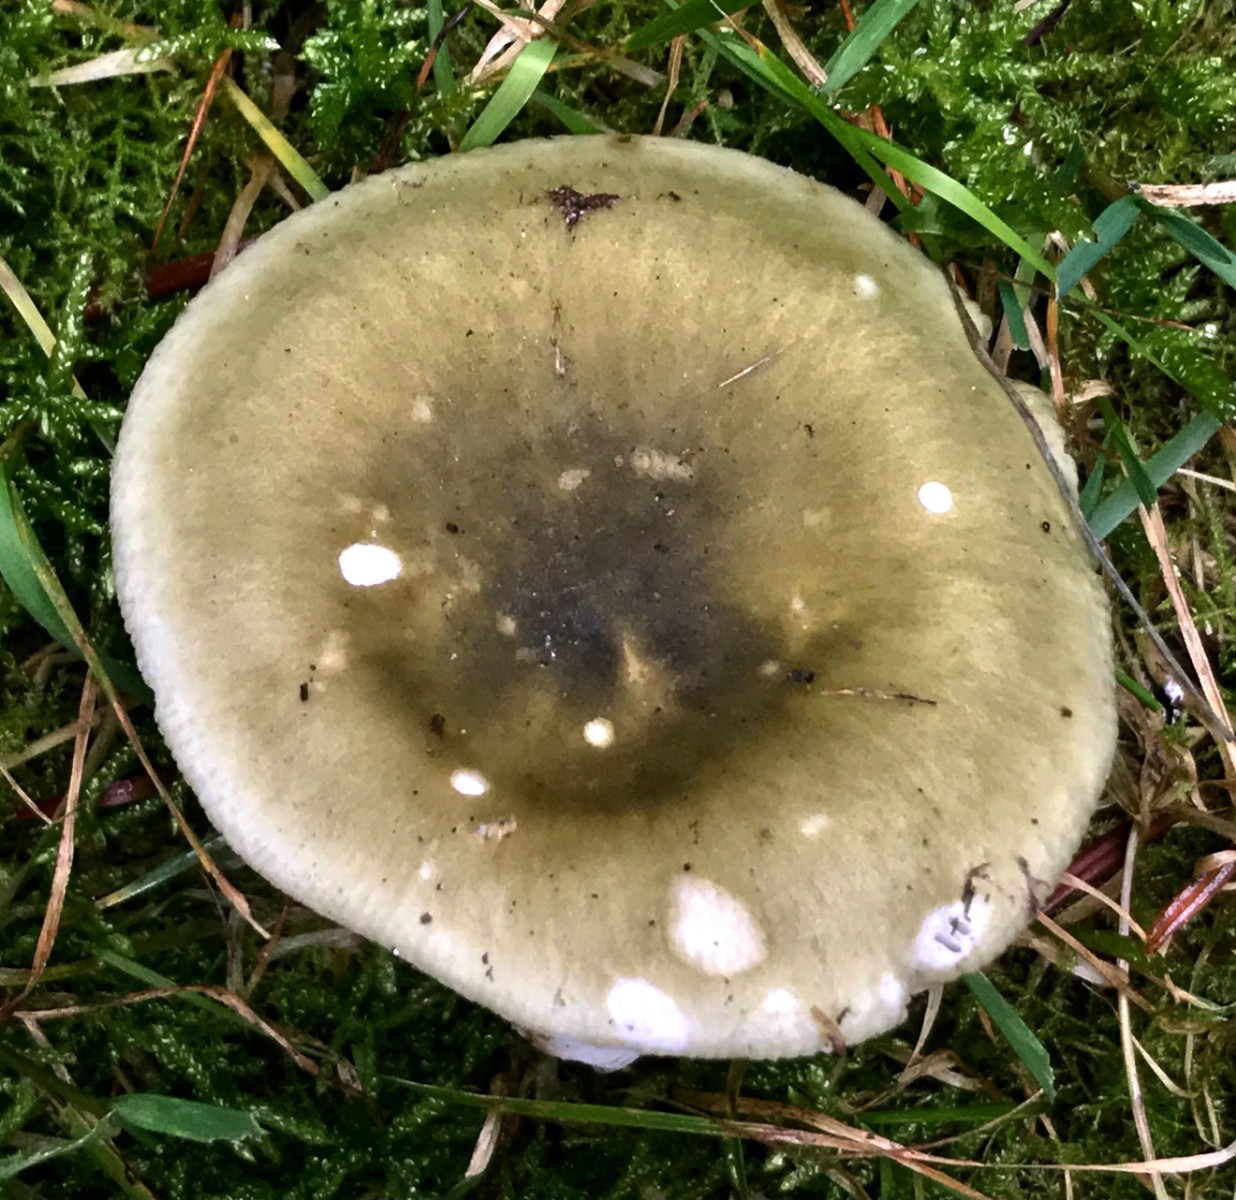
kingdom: Fungi
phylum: Basidiomycota
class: Agaricomycetes
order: Russulales
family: Russulaceae
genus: Russula
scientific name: Russula aeruginea
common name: græsgrøn skørhat
